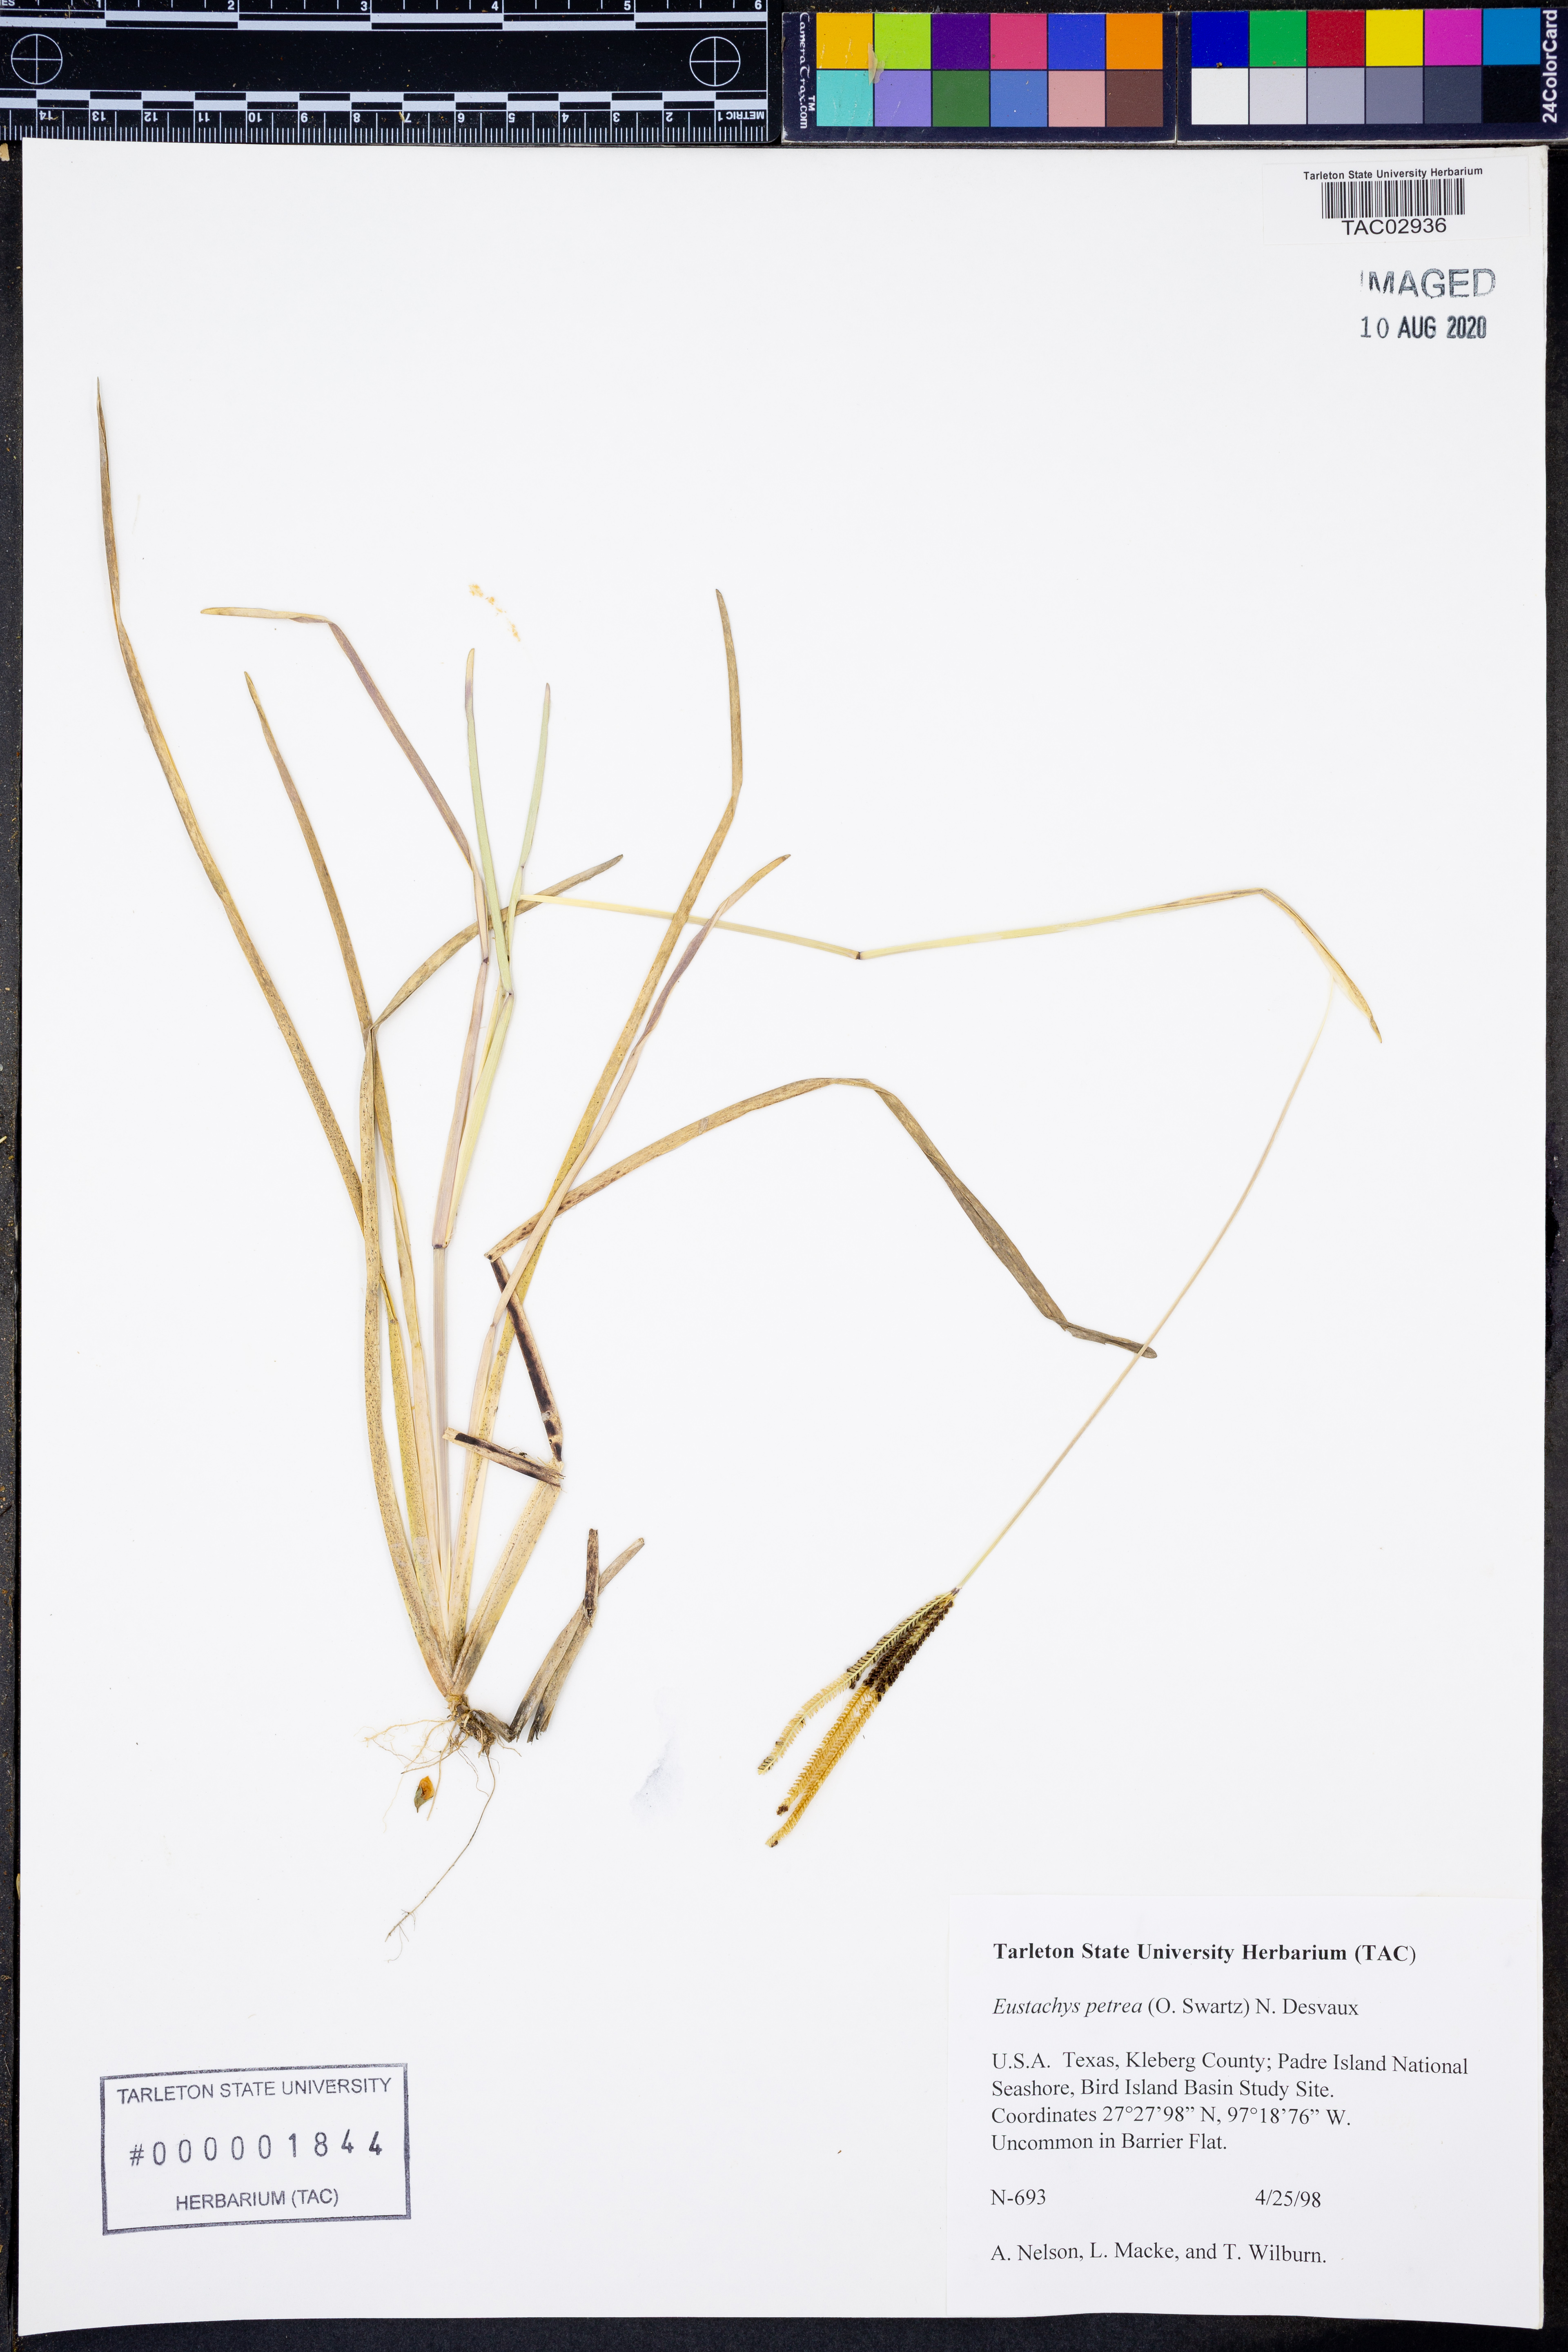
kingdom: Plantae
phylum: Tracheophyta
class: Liliopsida
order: Poales
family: Poaceae
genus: Eustachys
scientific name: Eustachys petraea
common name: Pinewoods fingergrass
